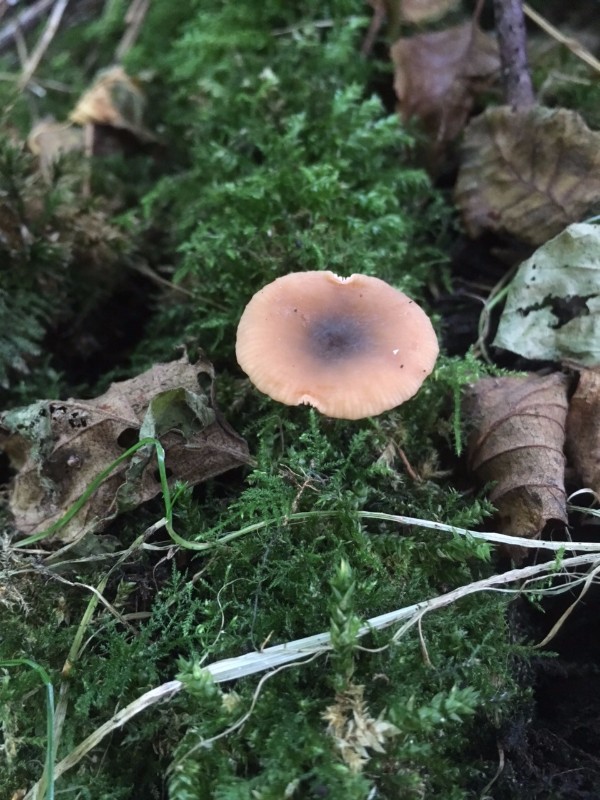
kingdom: Fungi
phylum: Basidiomycota
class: Agaricomycetes
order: Russulales
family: Russulaceae
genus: Lactarius
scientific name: Lactarius cyathuliformis
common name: mørkøjet mælkehat
